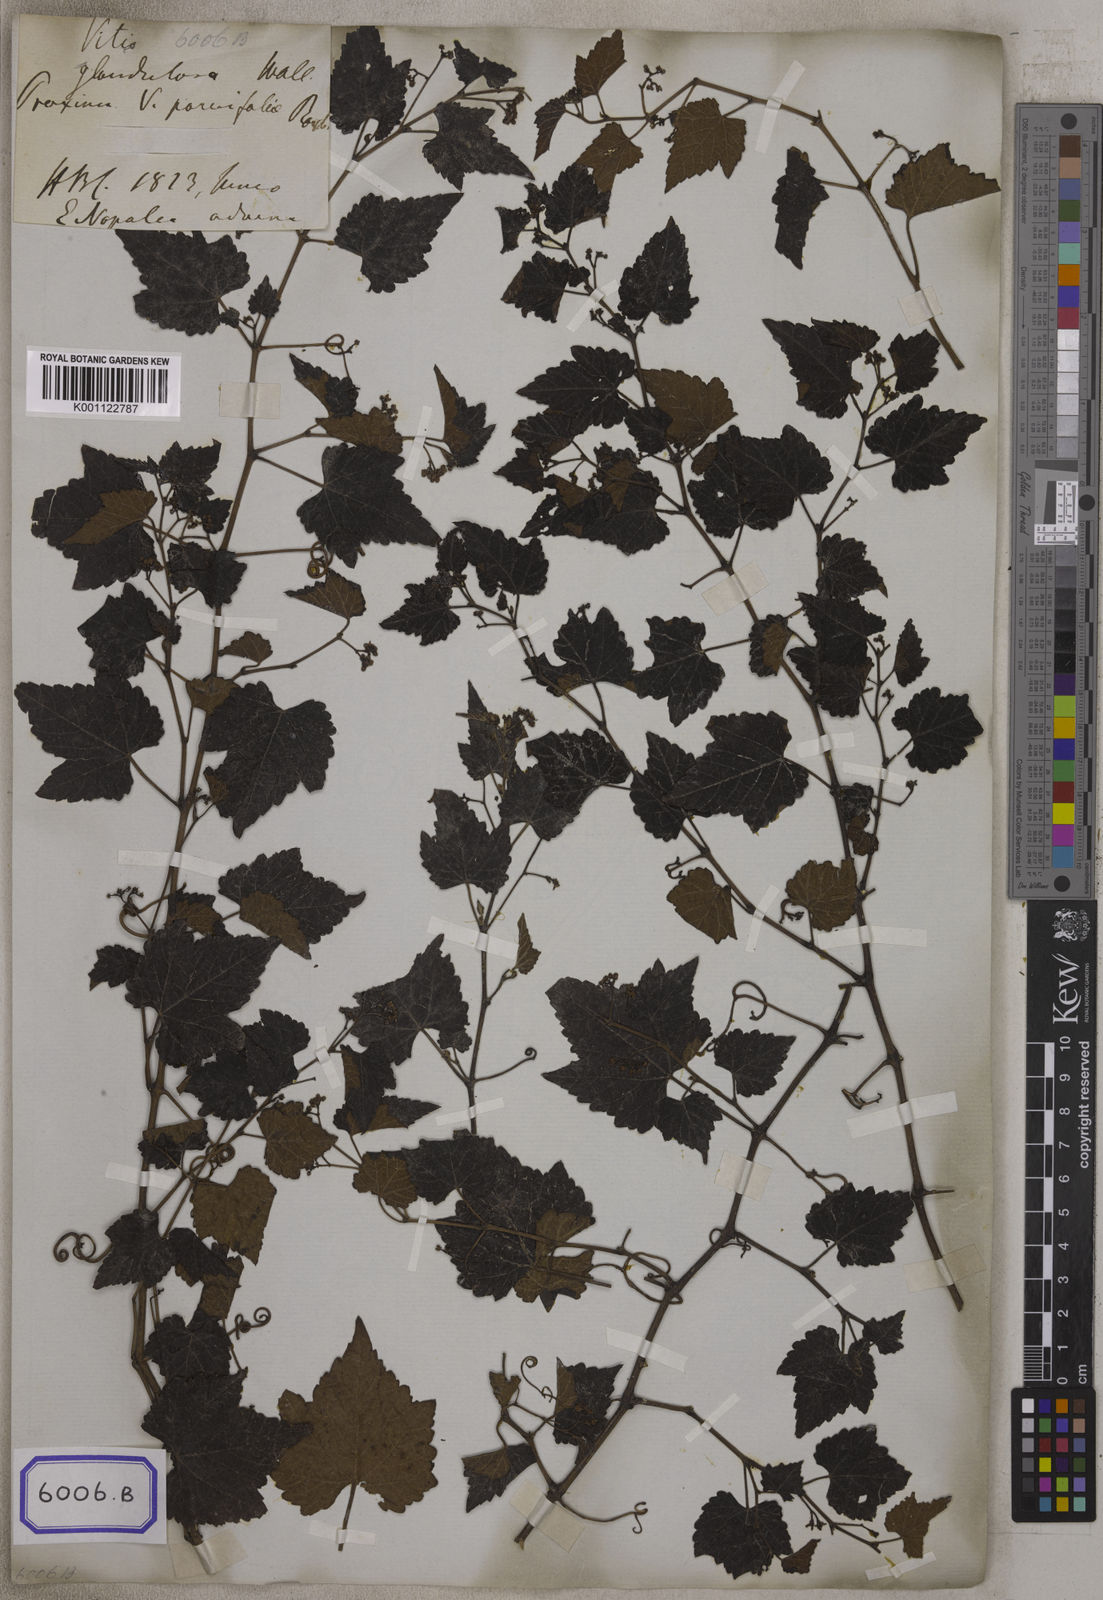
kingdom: Plantae
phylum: Tracheophyta
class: Magnoliopsida
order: Vitales
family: Vitaceae
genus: Ampelopsis
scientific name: Ampelopsis glandulosa
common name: Amur peppervine
